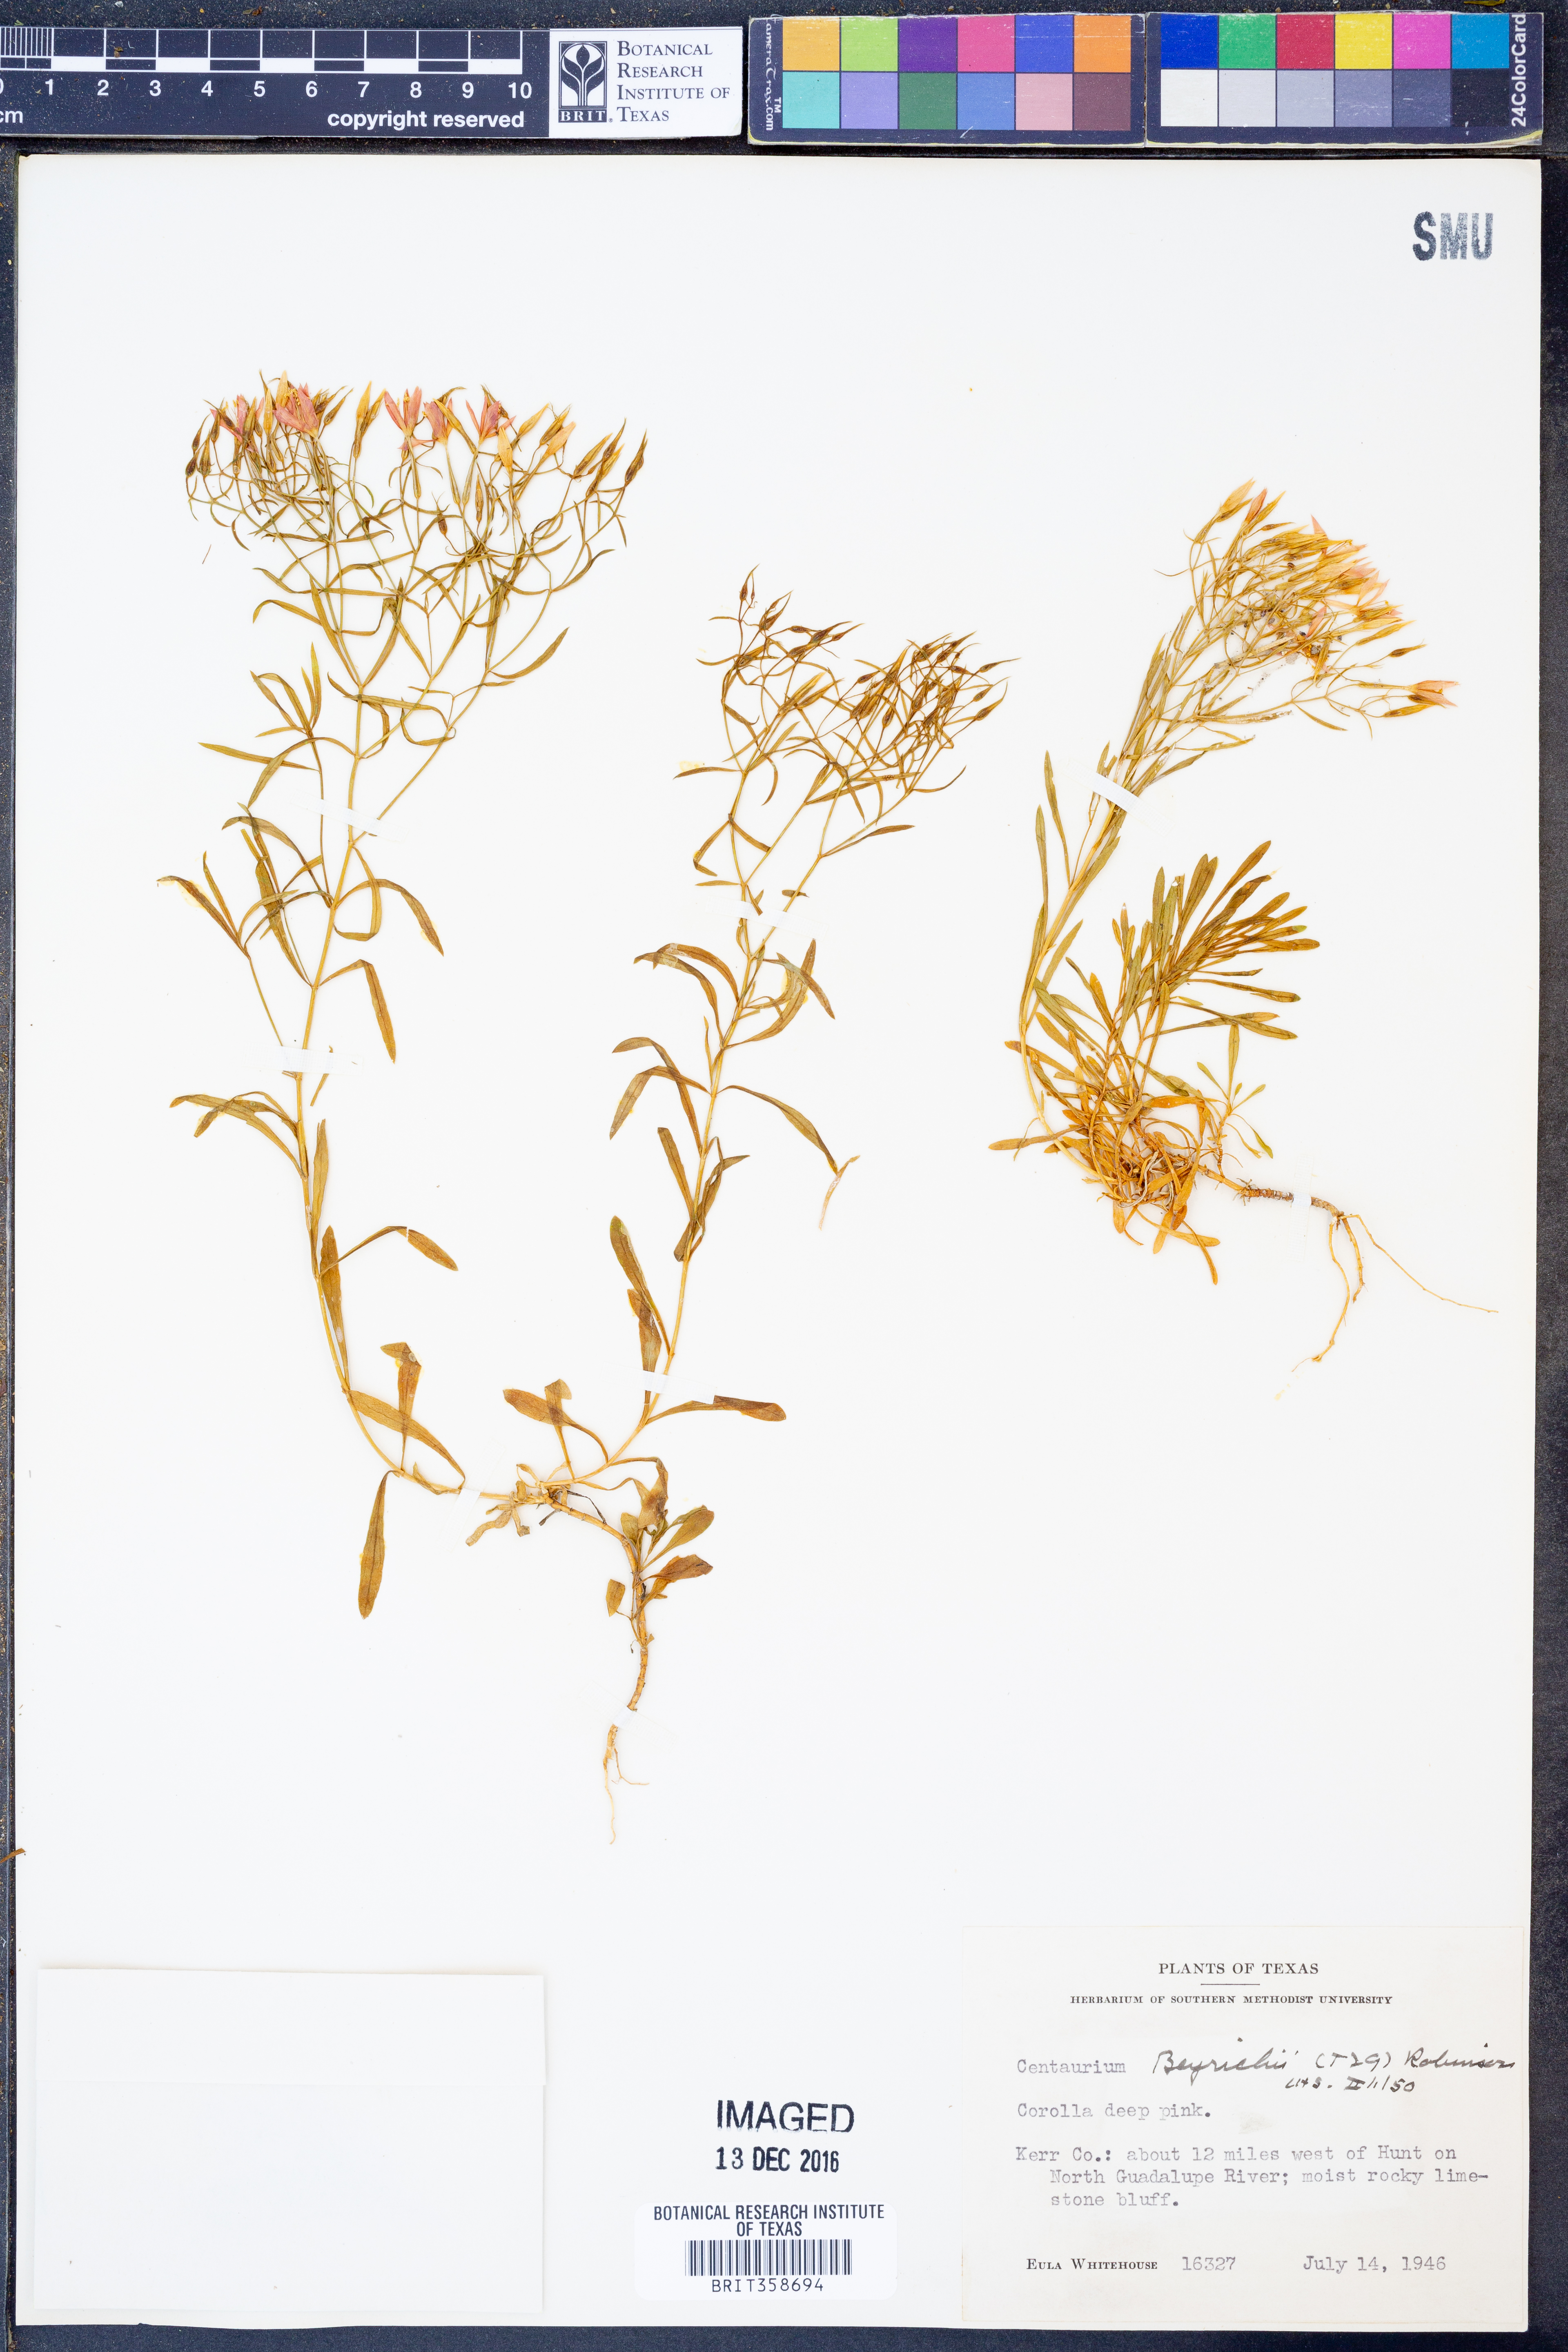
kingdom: Plantae
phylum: Tracheophyta
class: Magnoliopsida
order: Gentianales
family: Gentianaceae
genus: Zeltnera
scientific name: Zeltnera beyrichii
